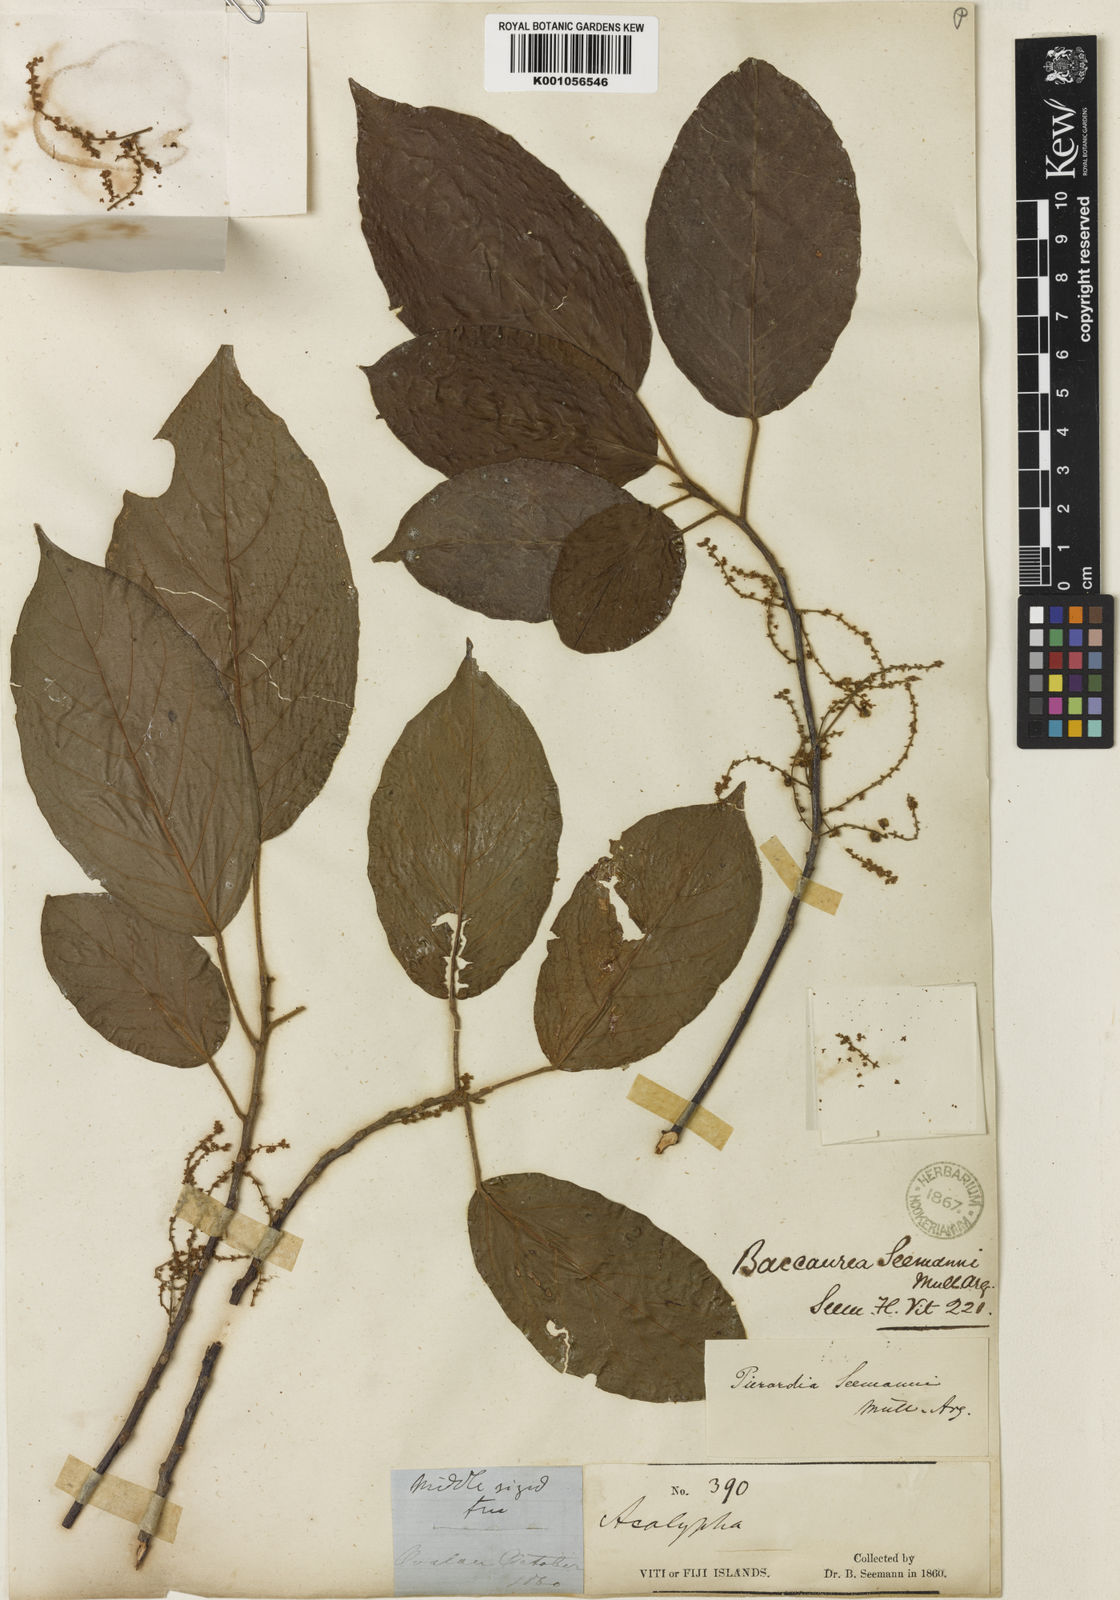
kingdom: Plantae
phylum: Tracheophyta
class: Magnoliopsida
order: Malpighiales
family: Phyllanthaceae
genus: Baccaurea
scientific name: Baccaurea
